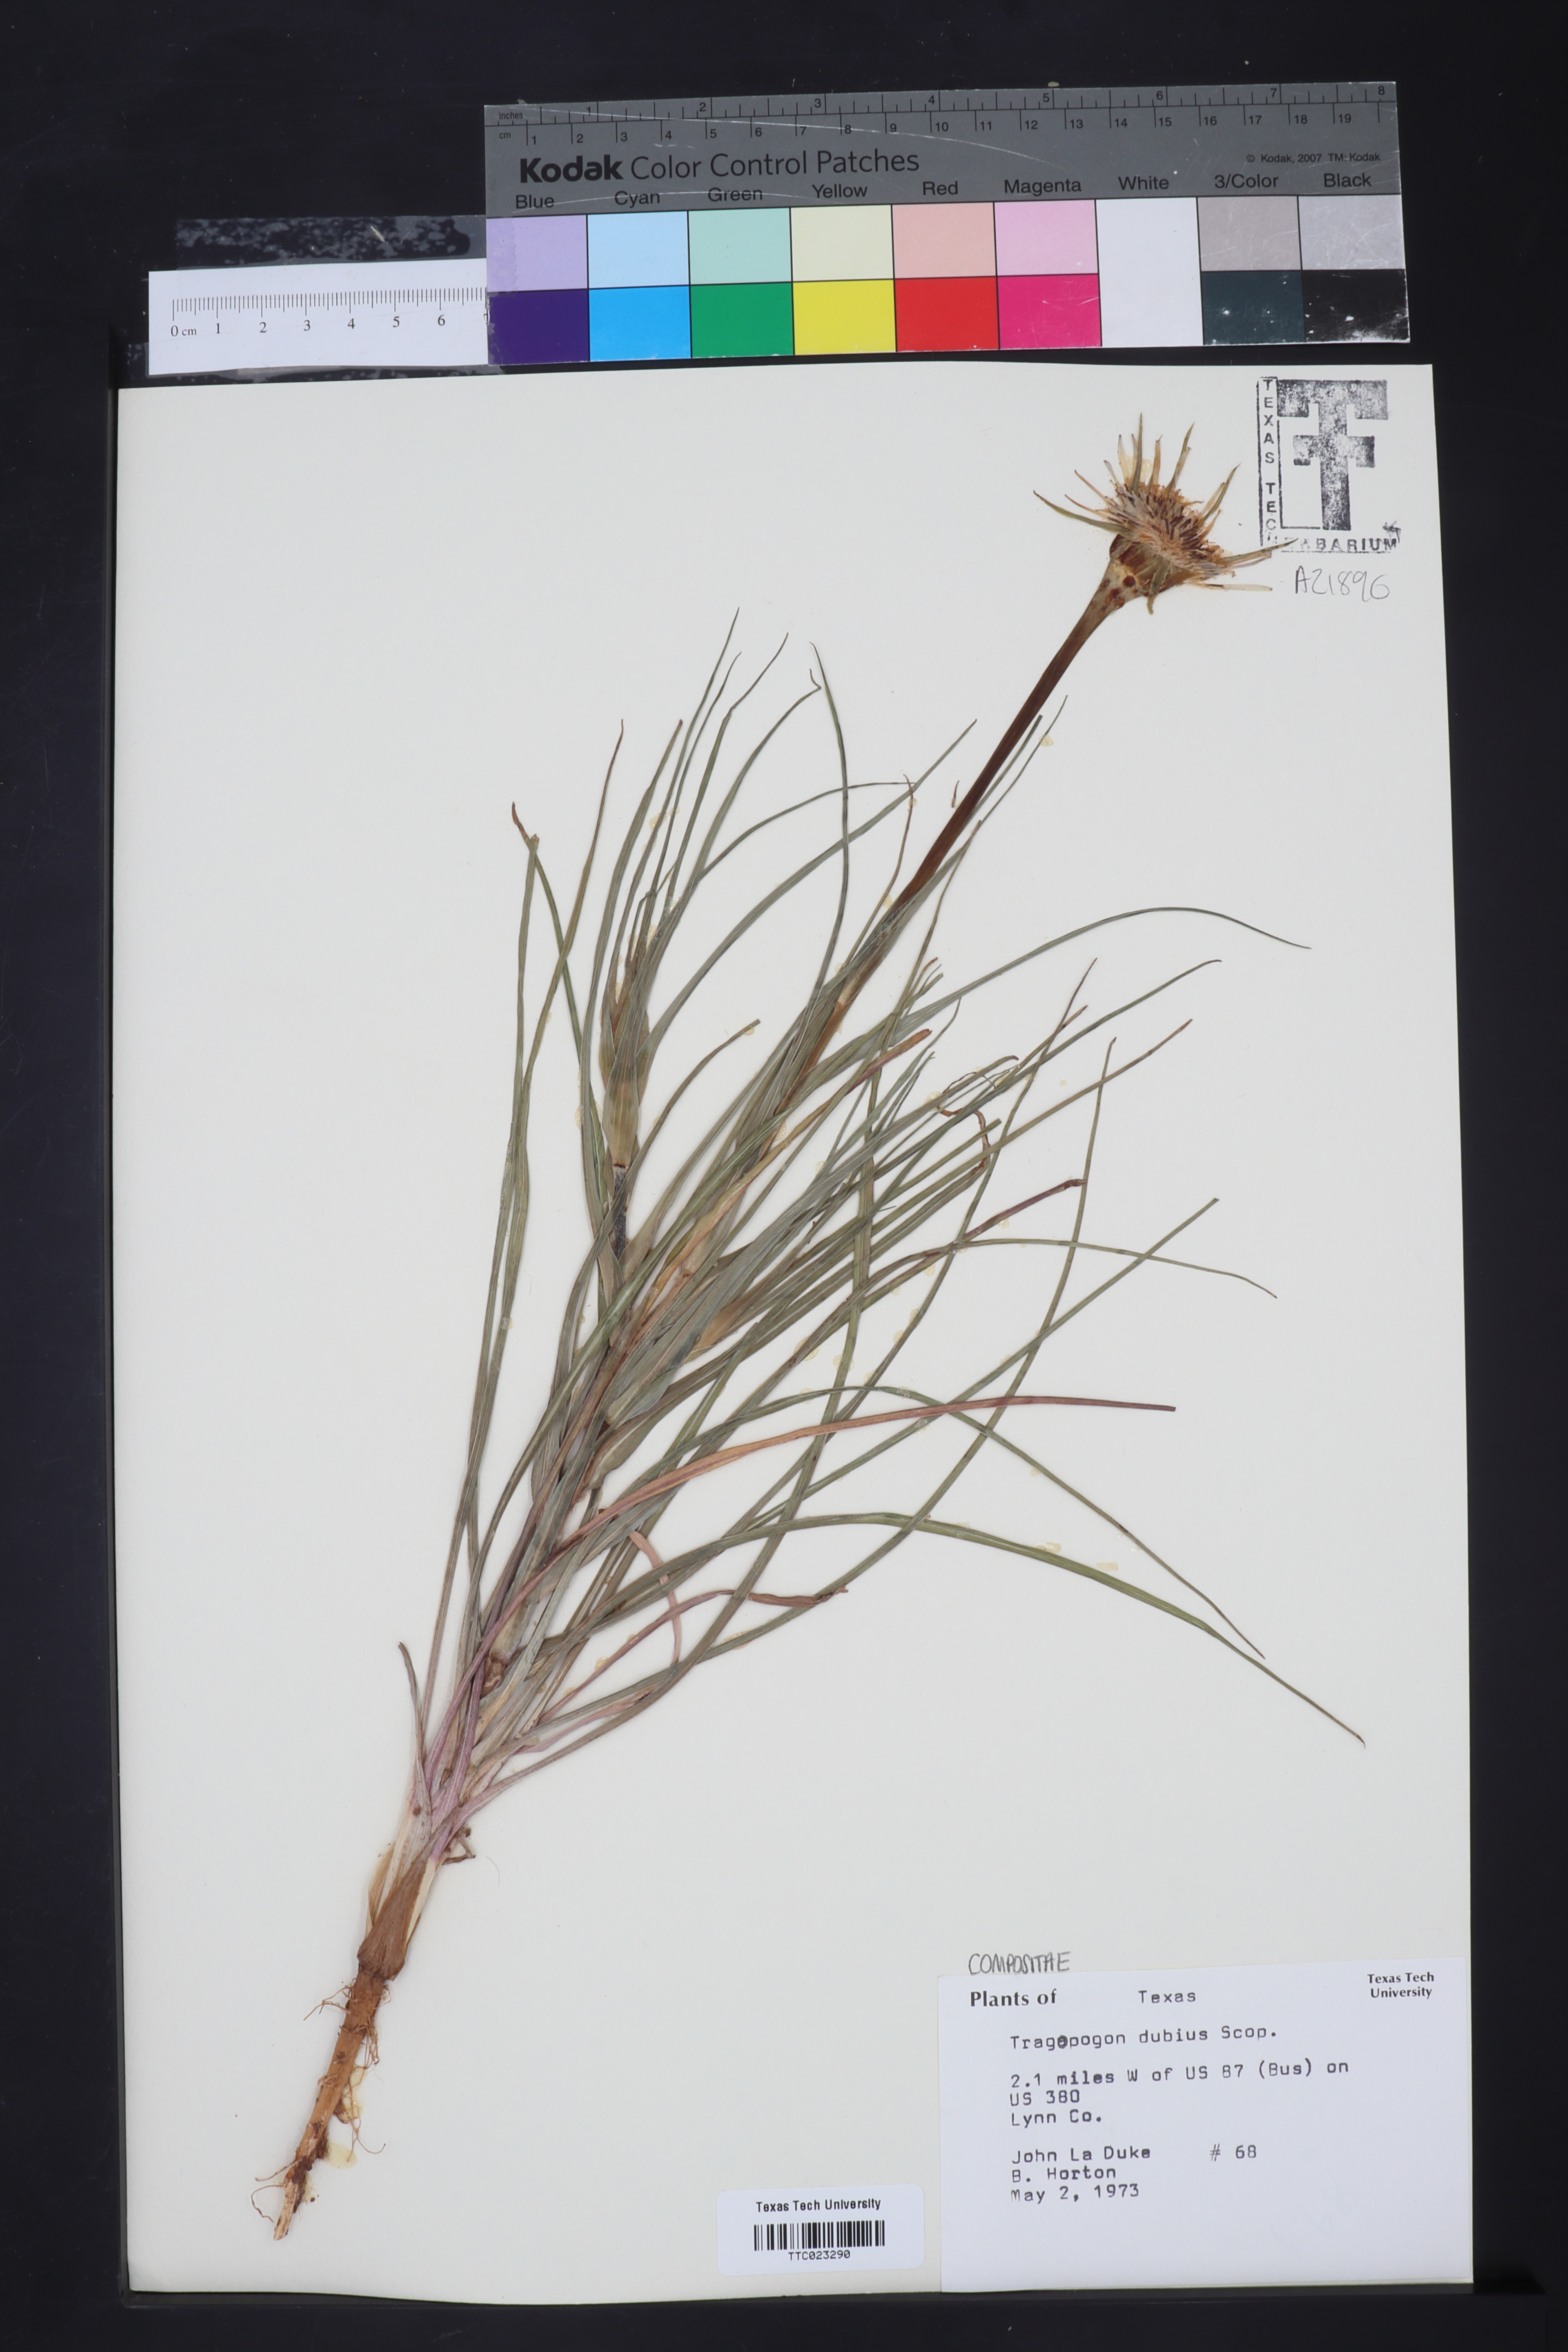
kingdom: Plantae
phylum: Tracheophyta
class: Magnoliopsida
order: Asterales
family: Asteraceae
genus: Tragopogon
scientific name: Tragopogon dubius
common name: Yellow salsify
